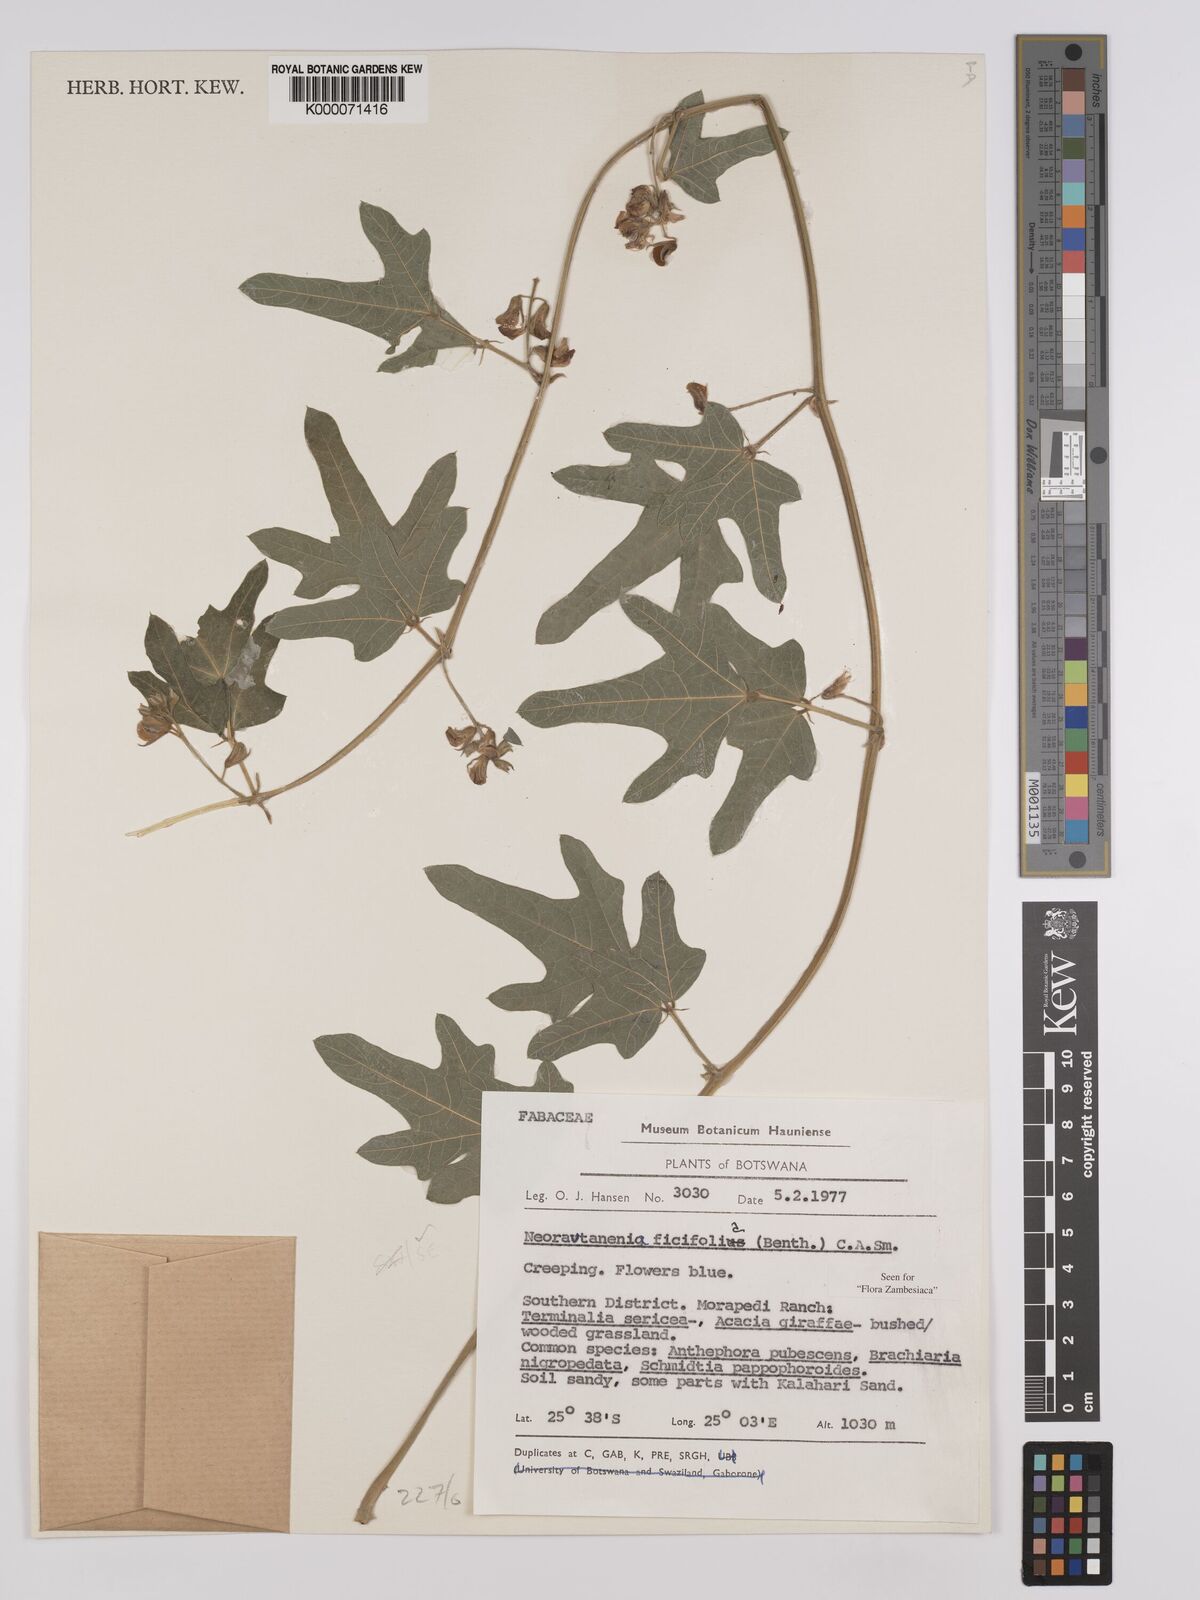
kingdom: Plantae
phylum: Tracheophyta
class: Magnoliopsida
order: Fabales
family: Fabaceae
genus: Neorautanenia
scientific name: Neorautanenia
